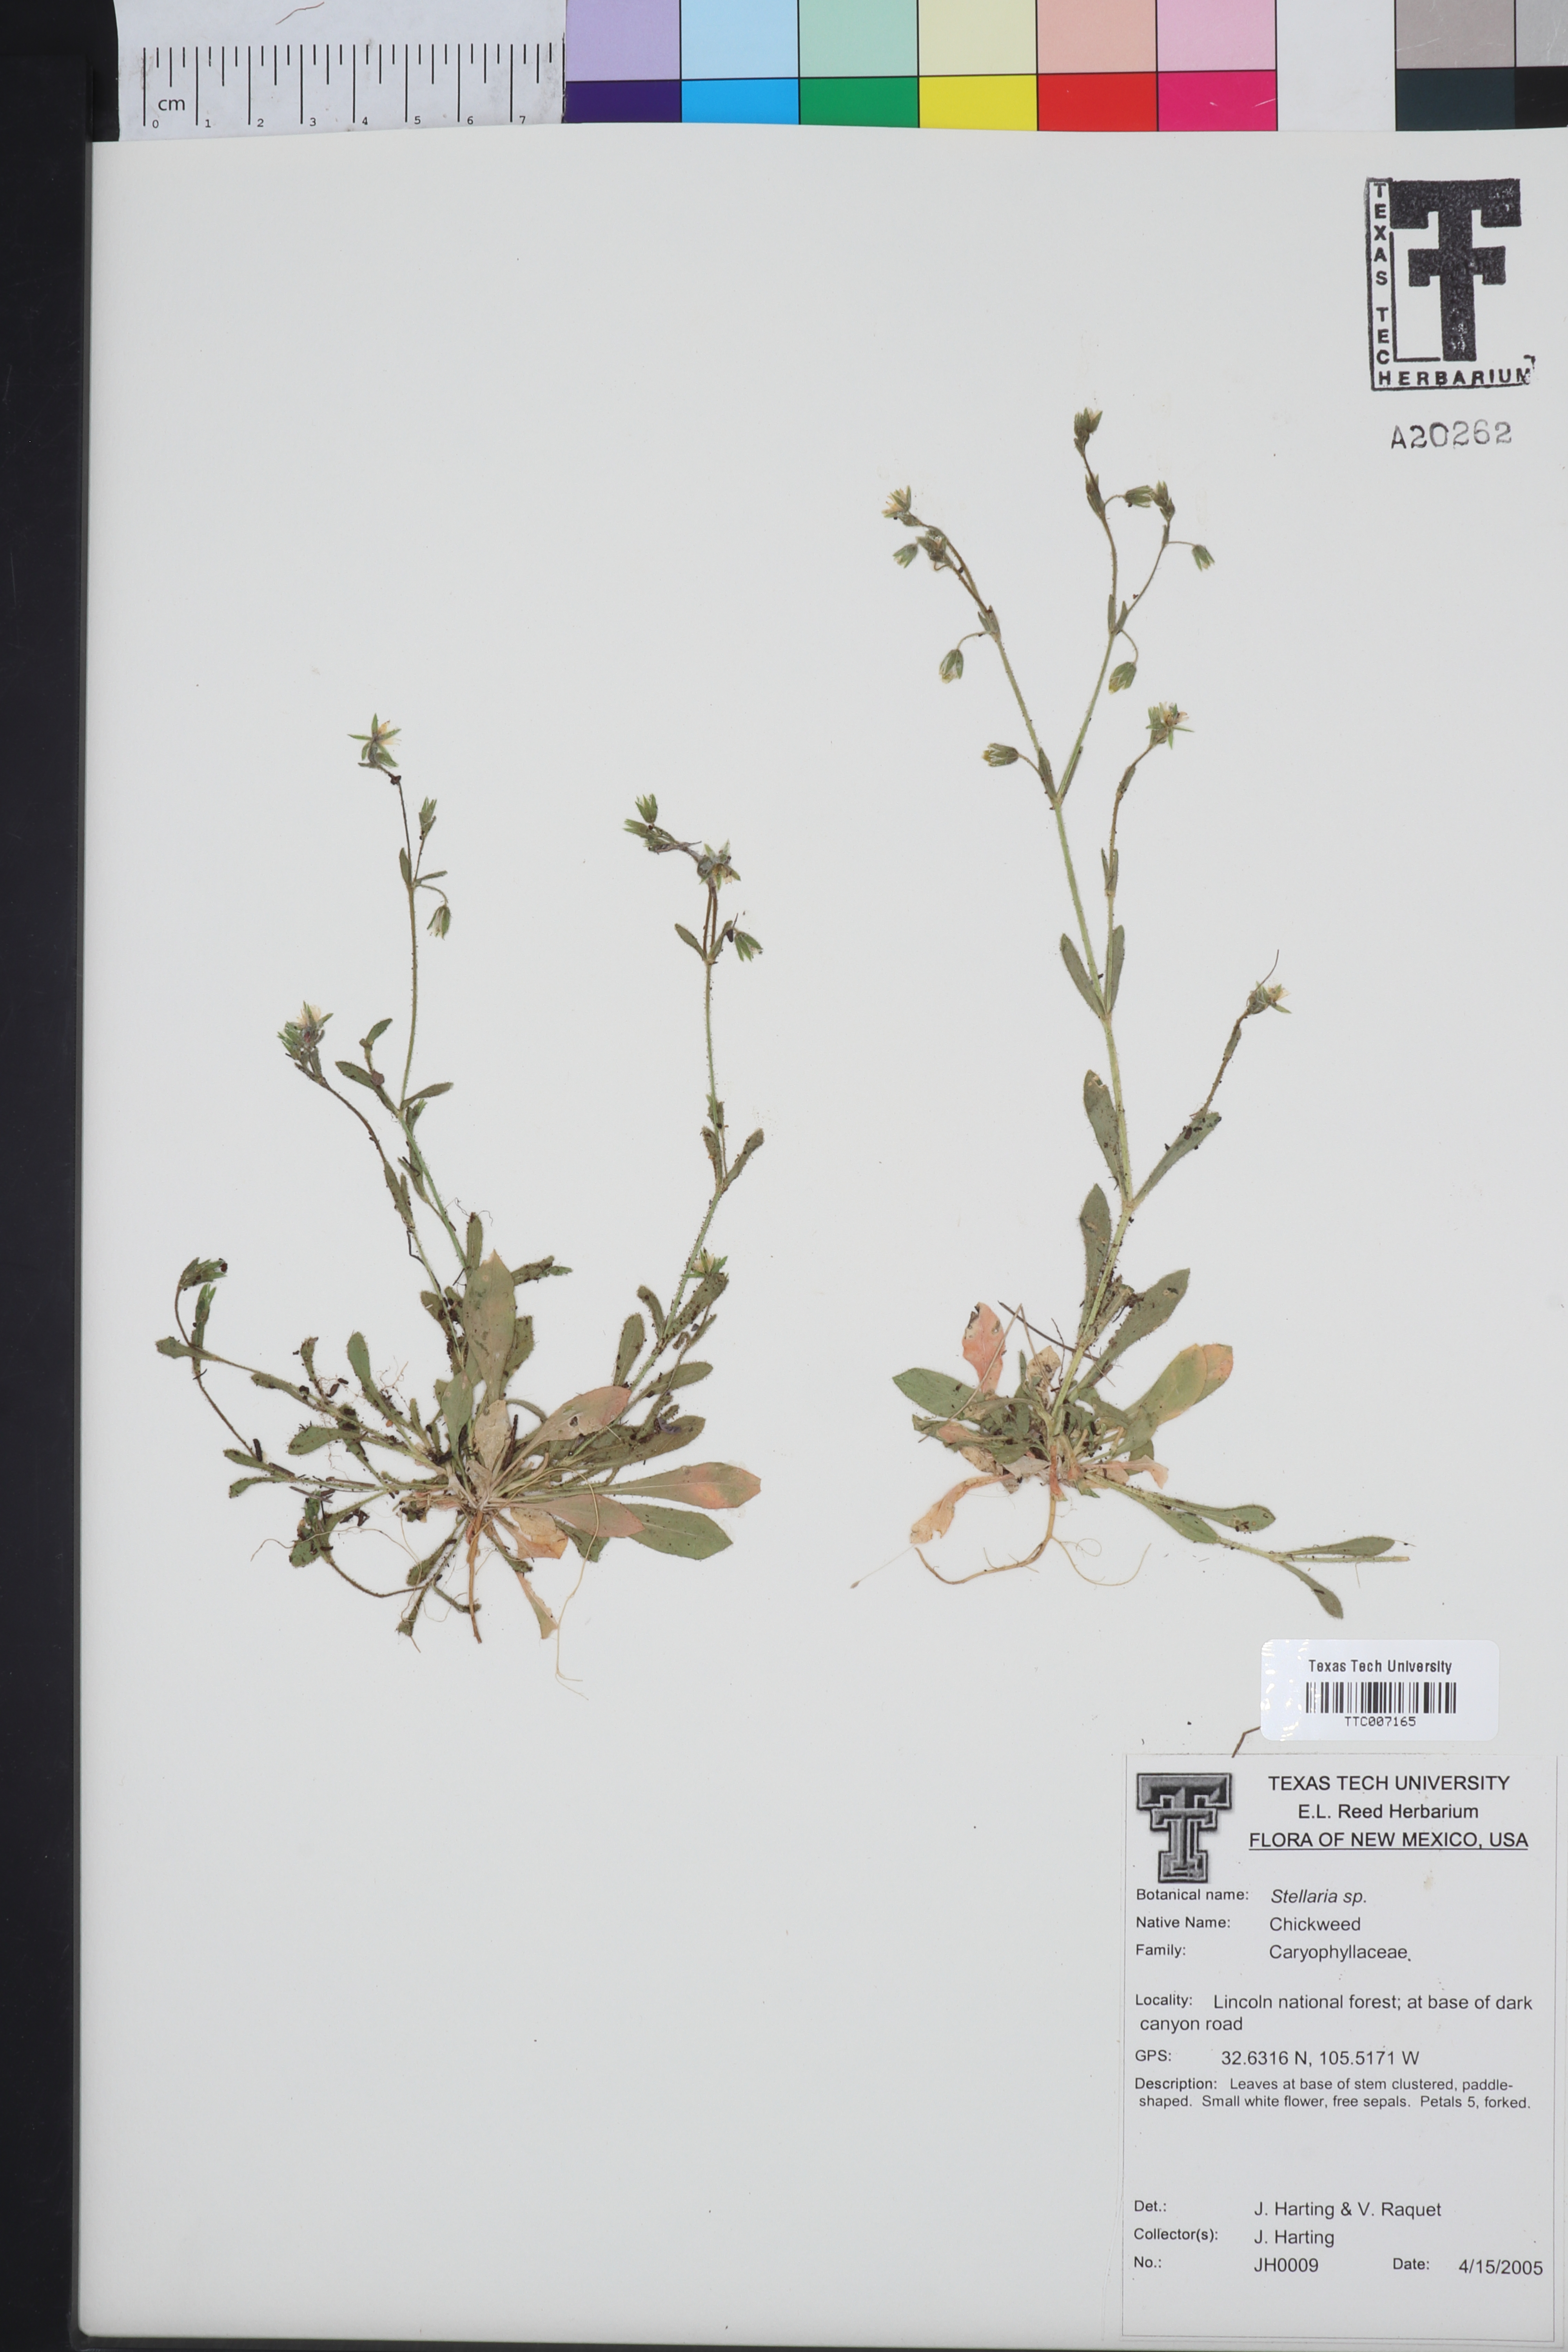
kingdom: Plantae
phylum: Tracheophyta
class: Magnoliopsida
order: Caryophyllales
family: Caryophyllaceae
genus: Stellaria
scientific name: Stellaria
